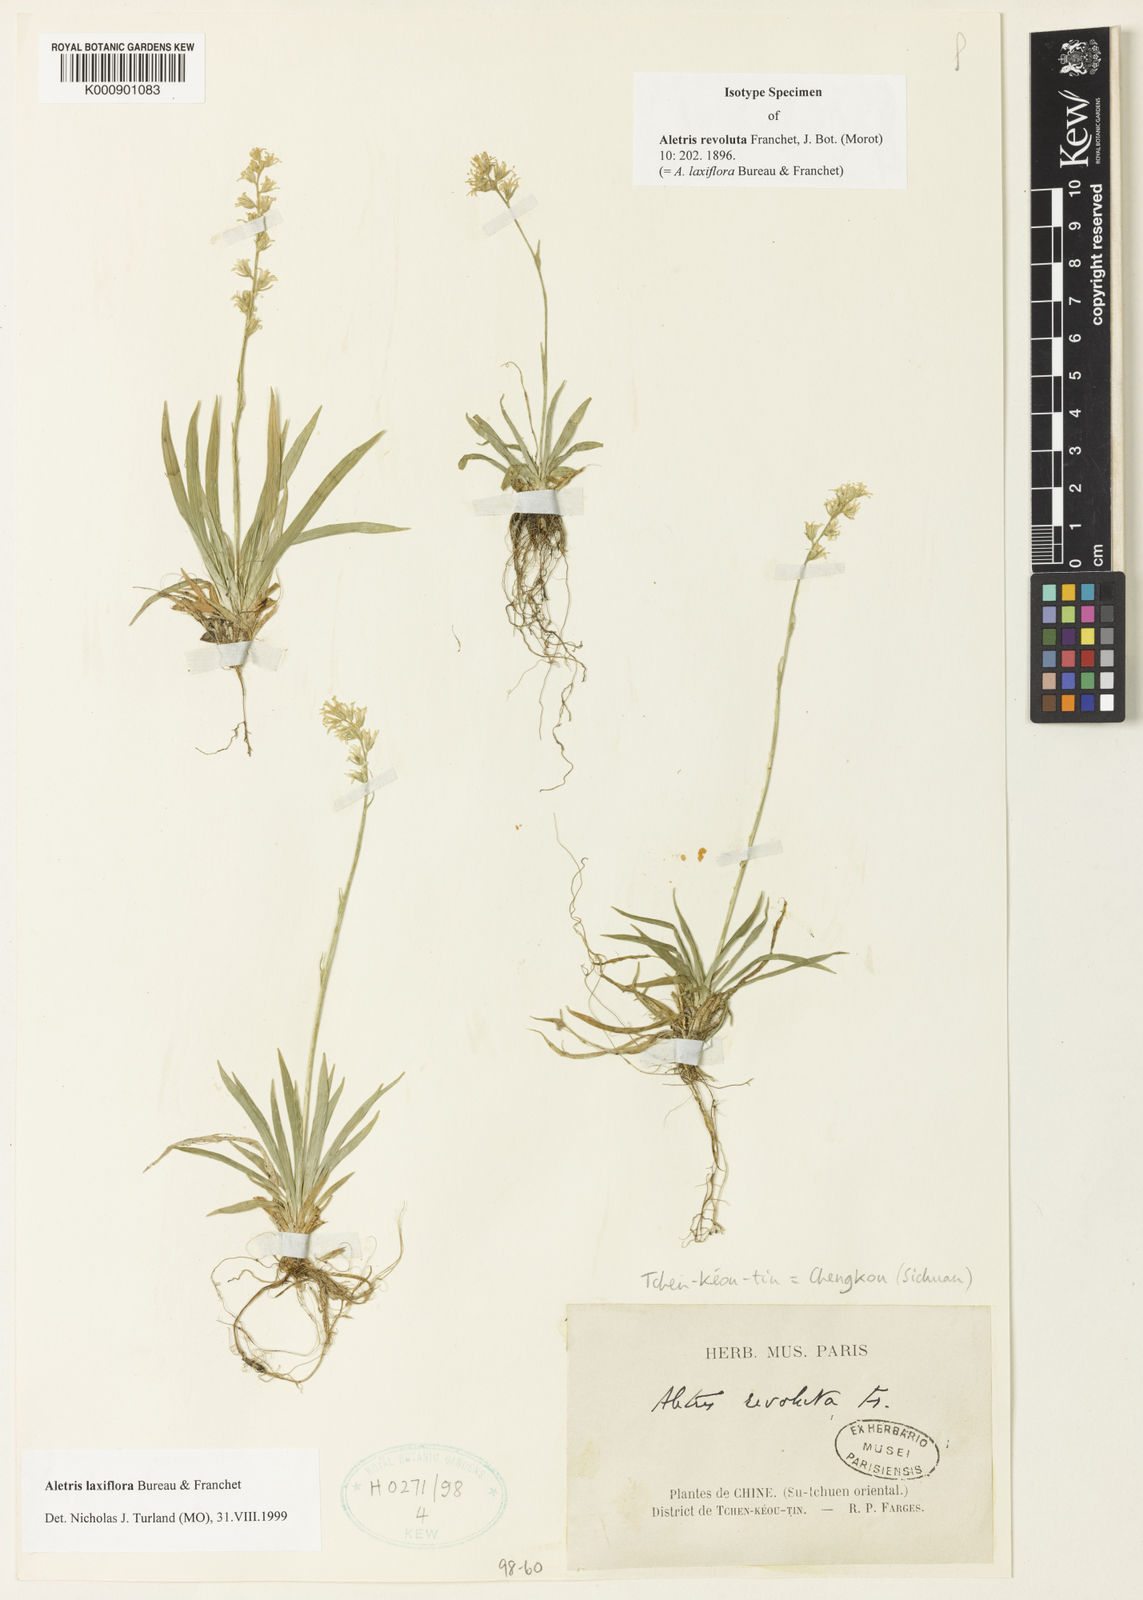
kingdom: Plantae
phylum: Tracheophyta
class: Liliopsida
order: Dioscoreales
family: Nartheciaceae
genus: Aletris
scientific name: Aletris laxiflora
